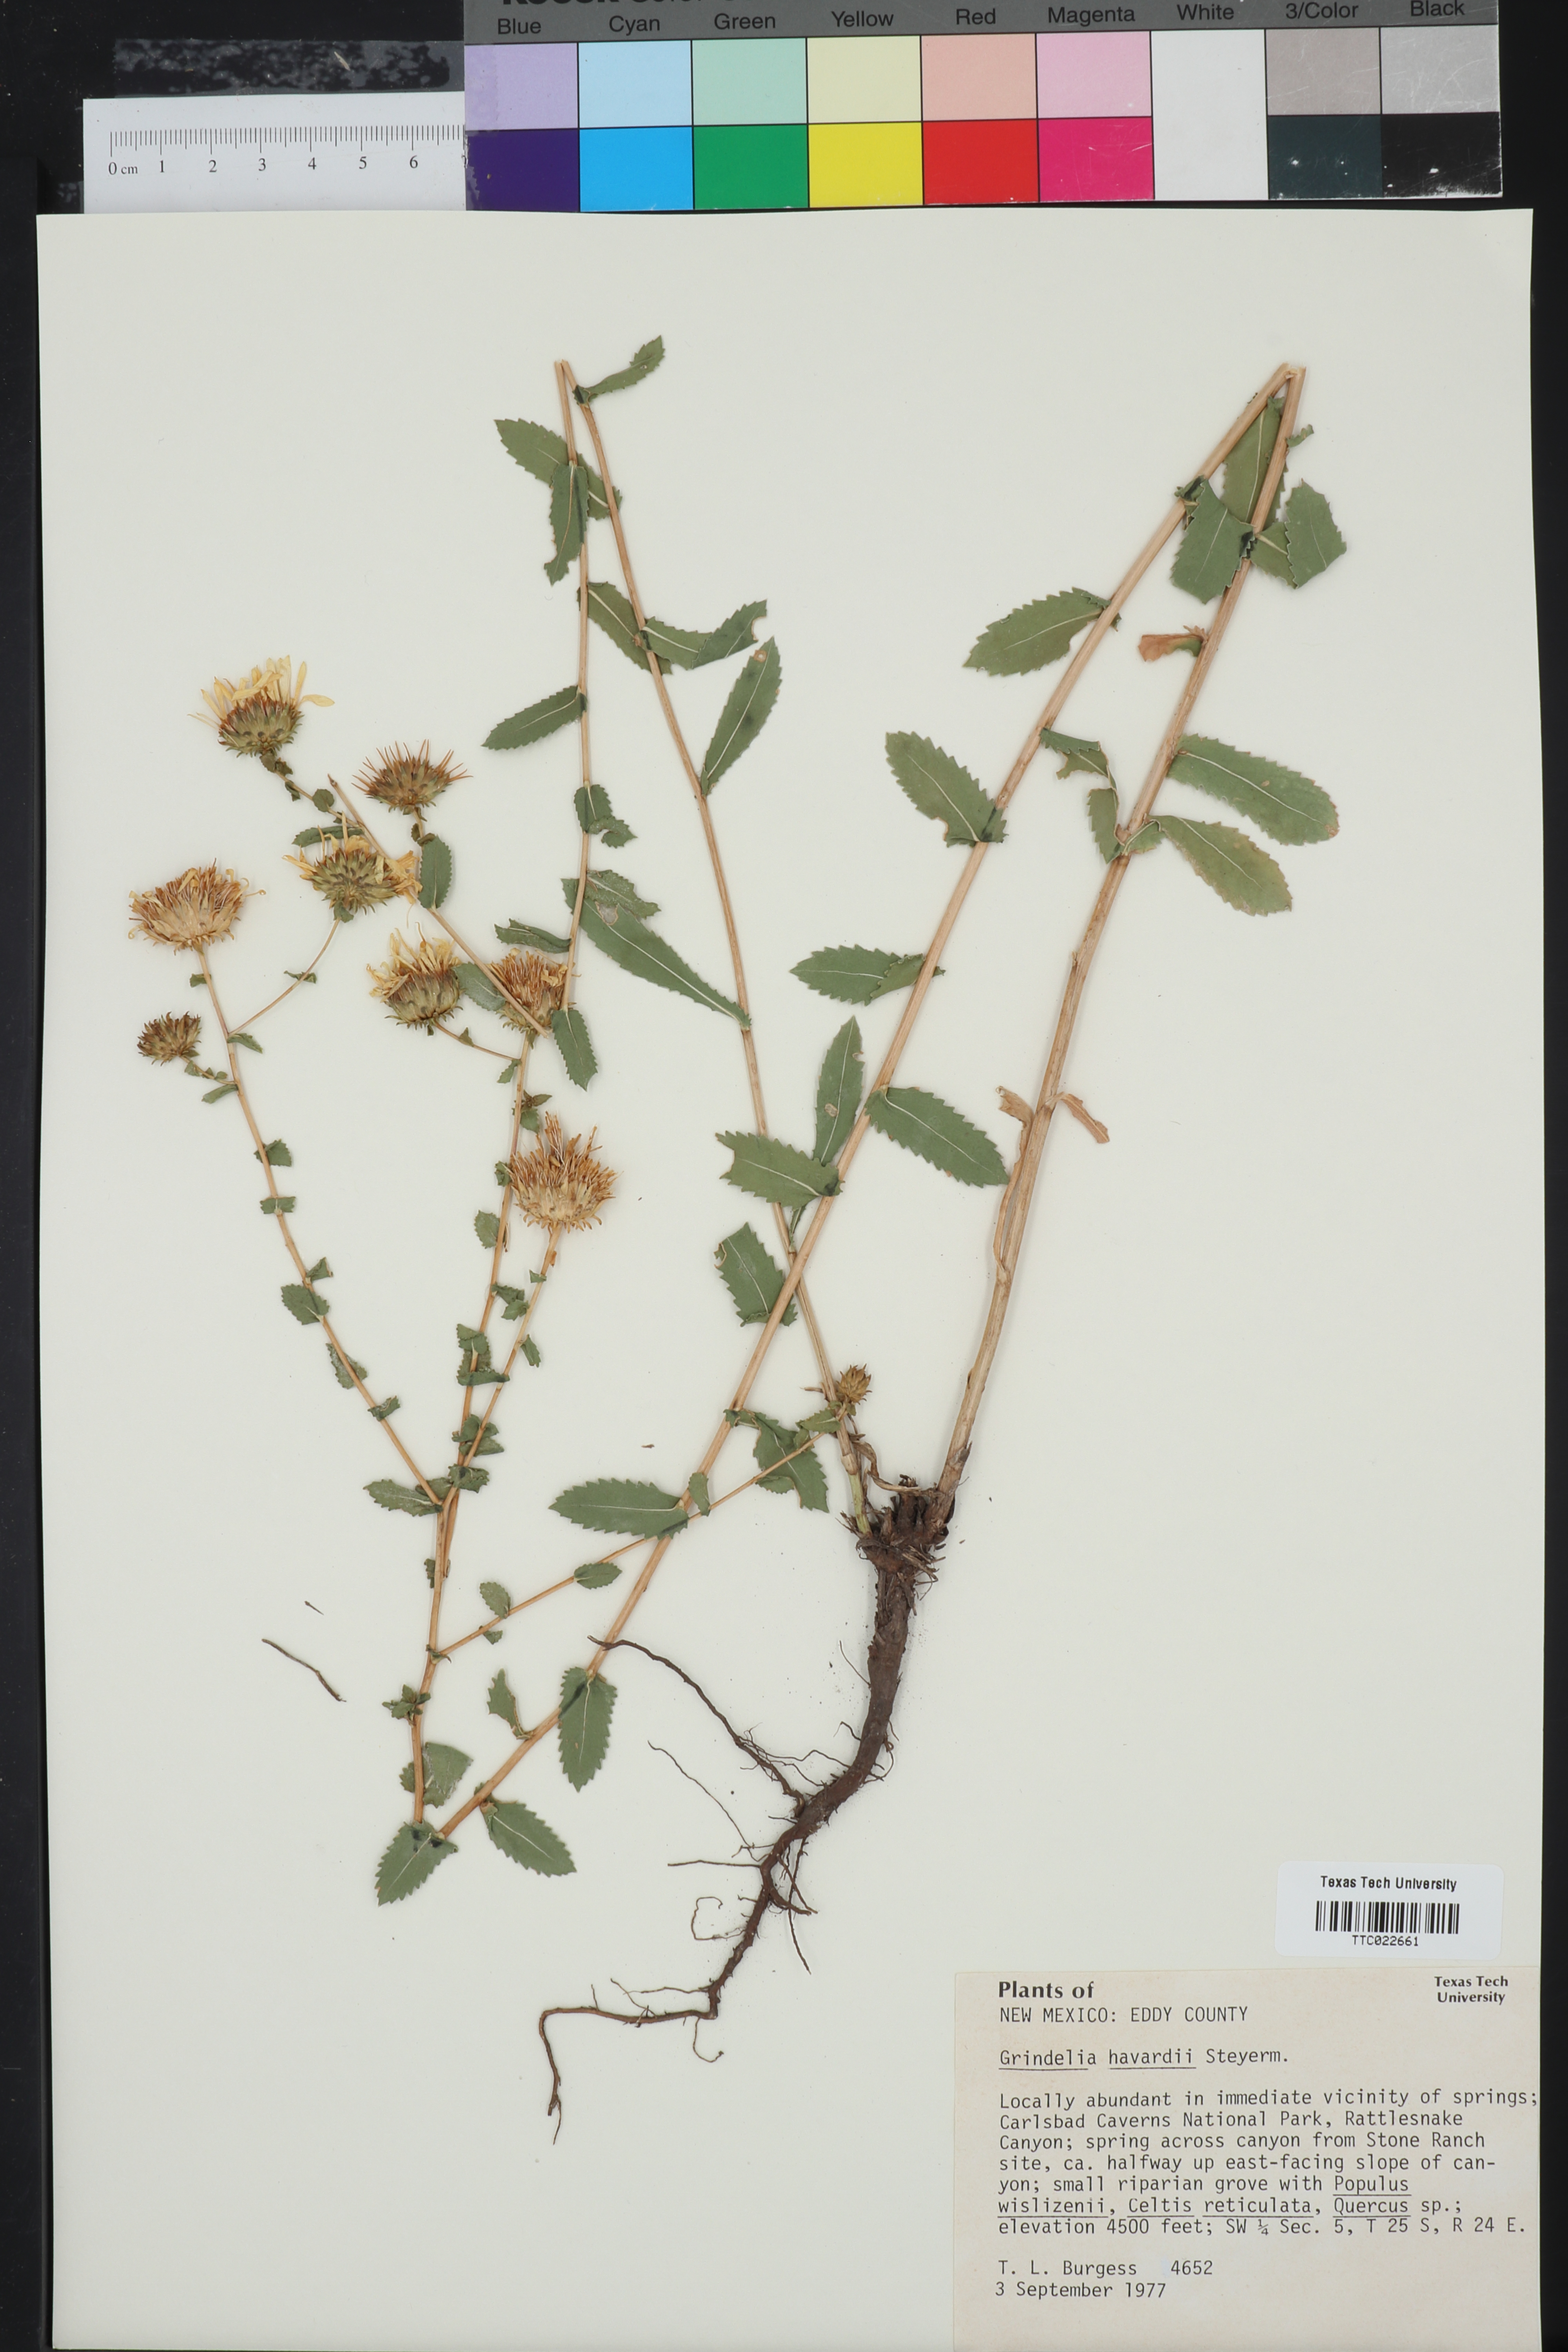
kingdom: Plantae
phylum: Tracheophyta
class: Magnoliopsida
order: Asterales
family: Asteraceae
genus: Grindelia
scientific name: Grindelia havardii
